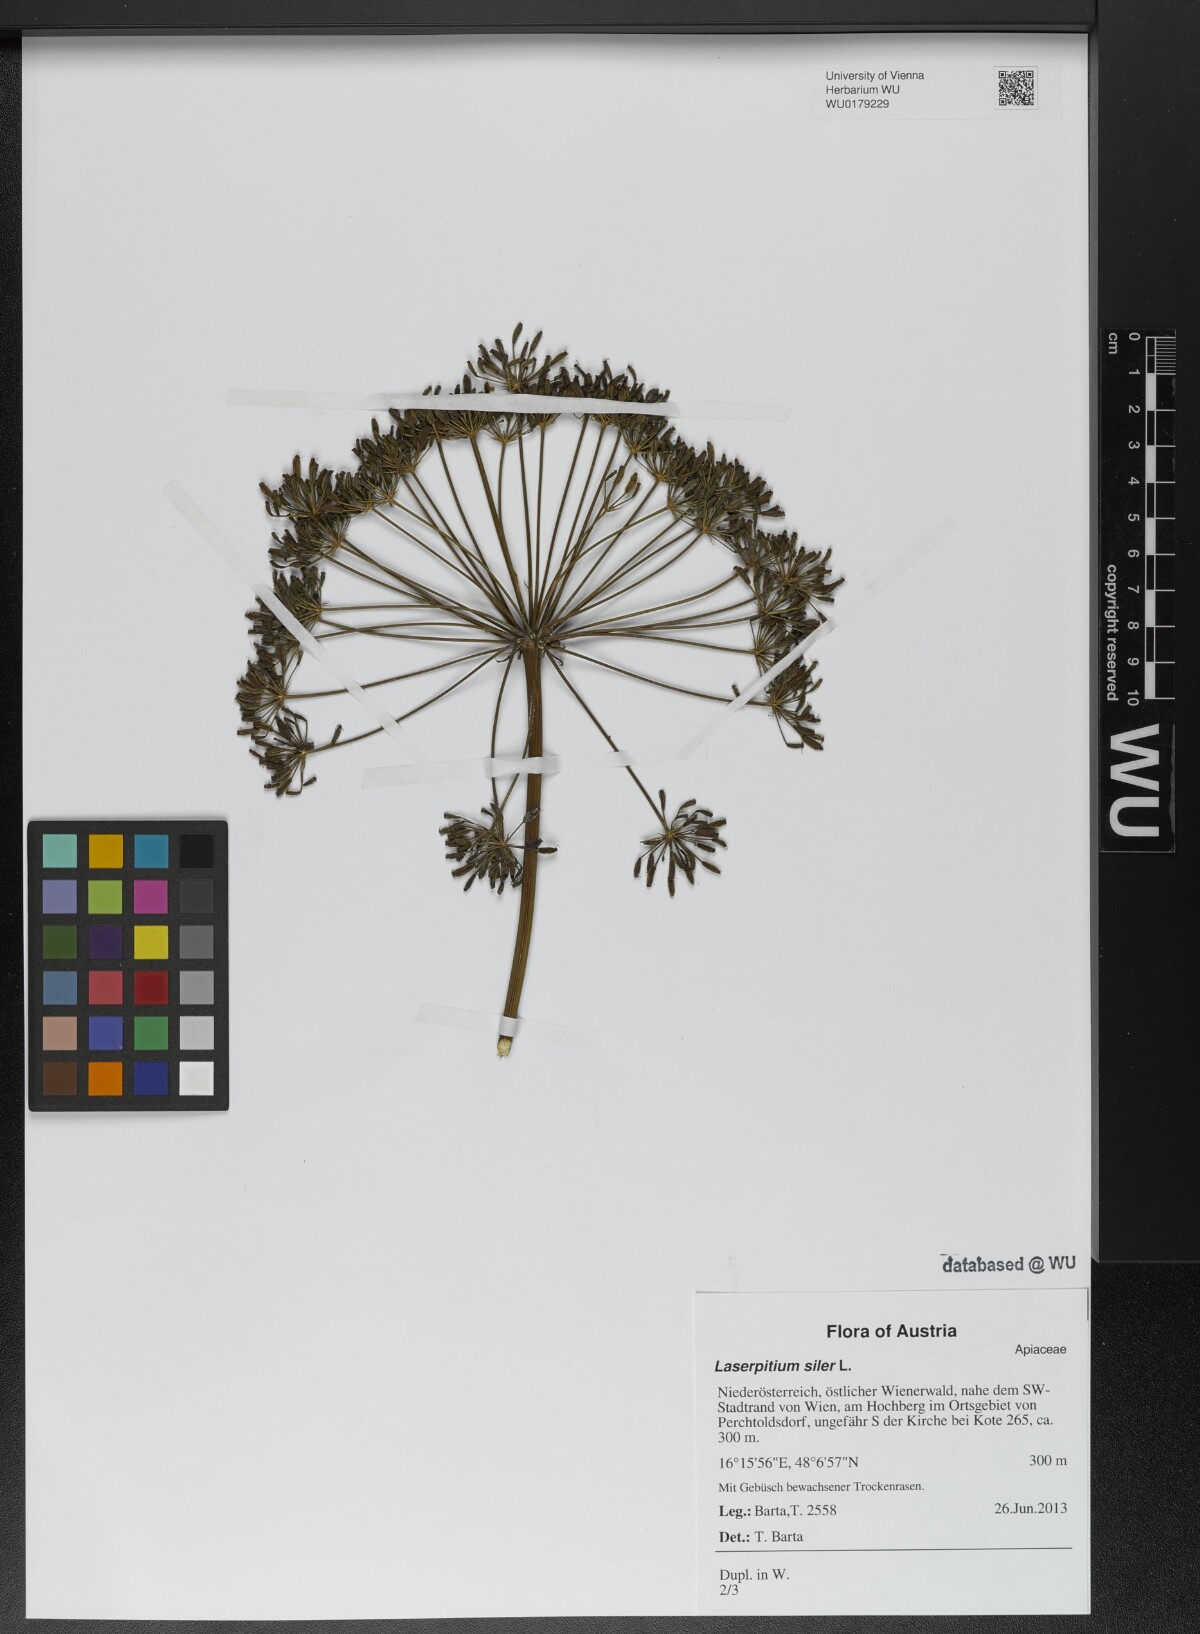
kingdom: Plantae
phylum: Tracheophyta
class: Magnoliopsida
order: Apiales
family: Apiaceae
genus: Siler
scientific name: Siler montanum
